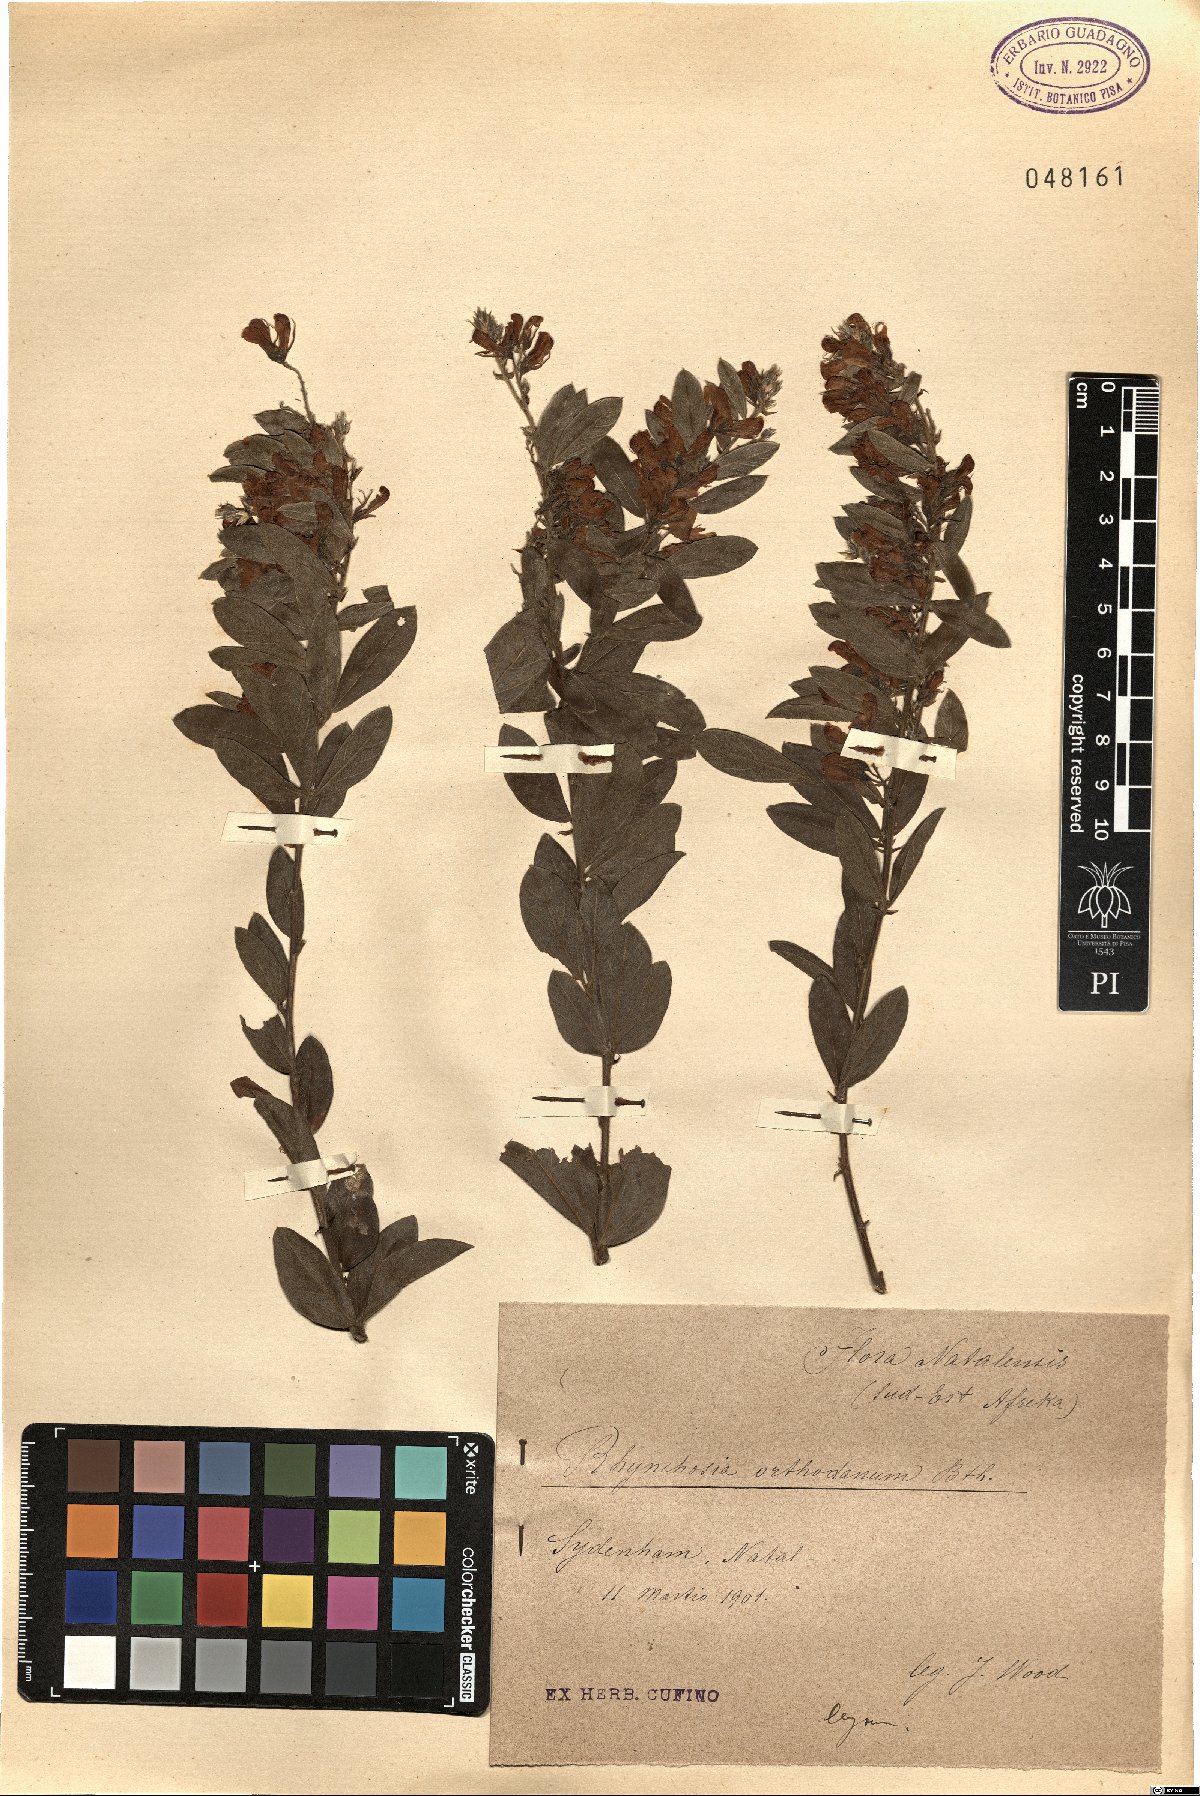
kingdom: Plantae
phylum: Tracheophyta
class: Magnoliopsida
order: Fabales
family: Fabaceae
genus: Rhynchosia
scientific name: Rhynchosia sordida
